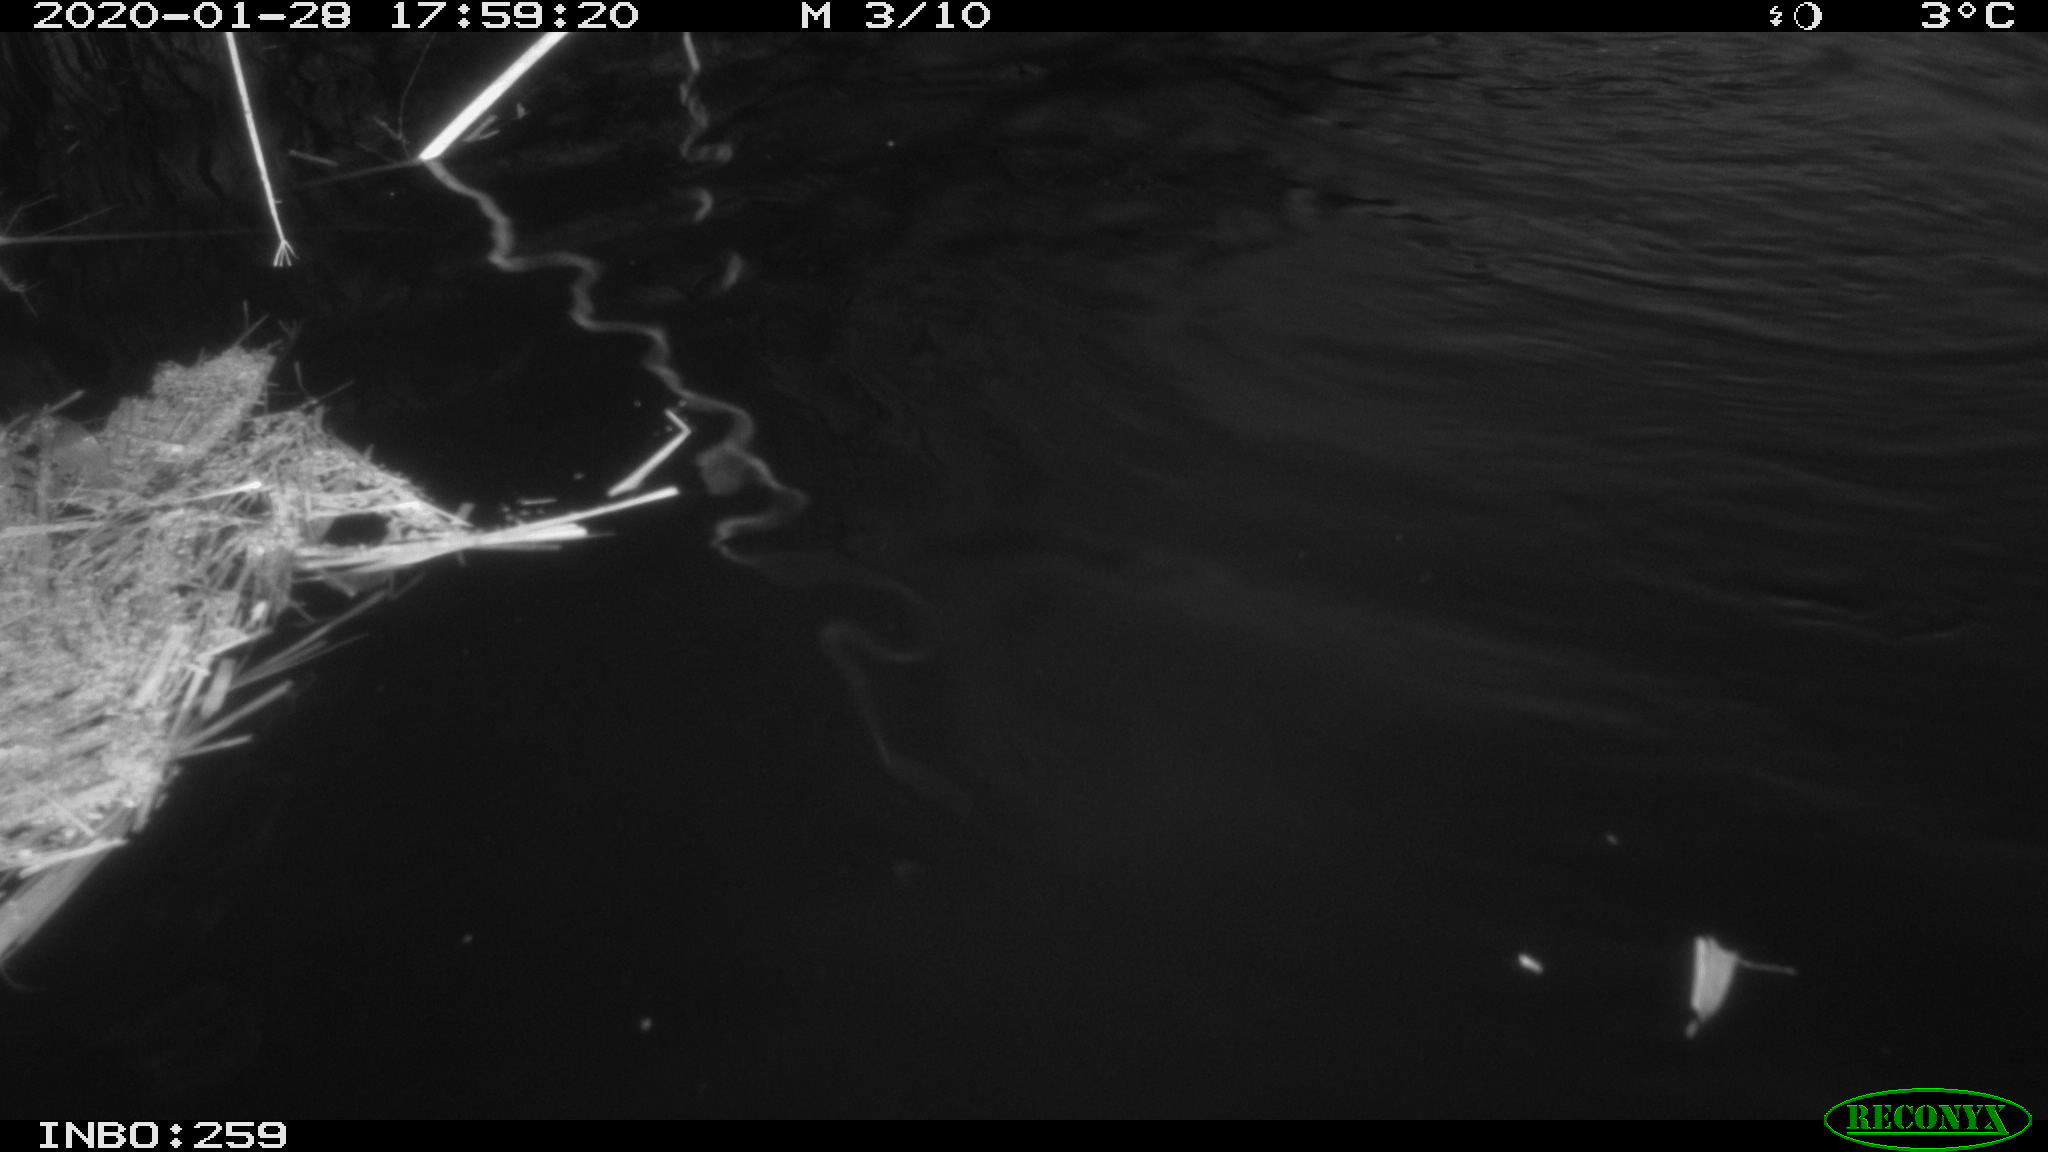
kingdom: Animalia
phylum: Chordata
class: Mammalia
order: Rodentia
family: Cricetidae
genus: Ondatra
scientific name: Ondatra zibethicus
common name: Muskrat
